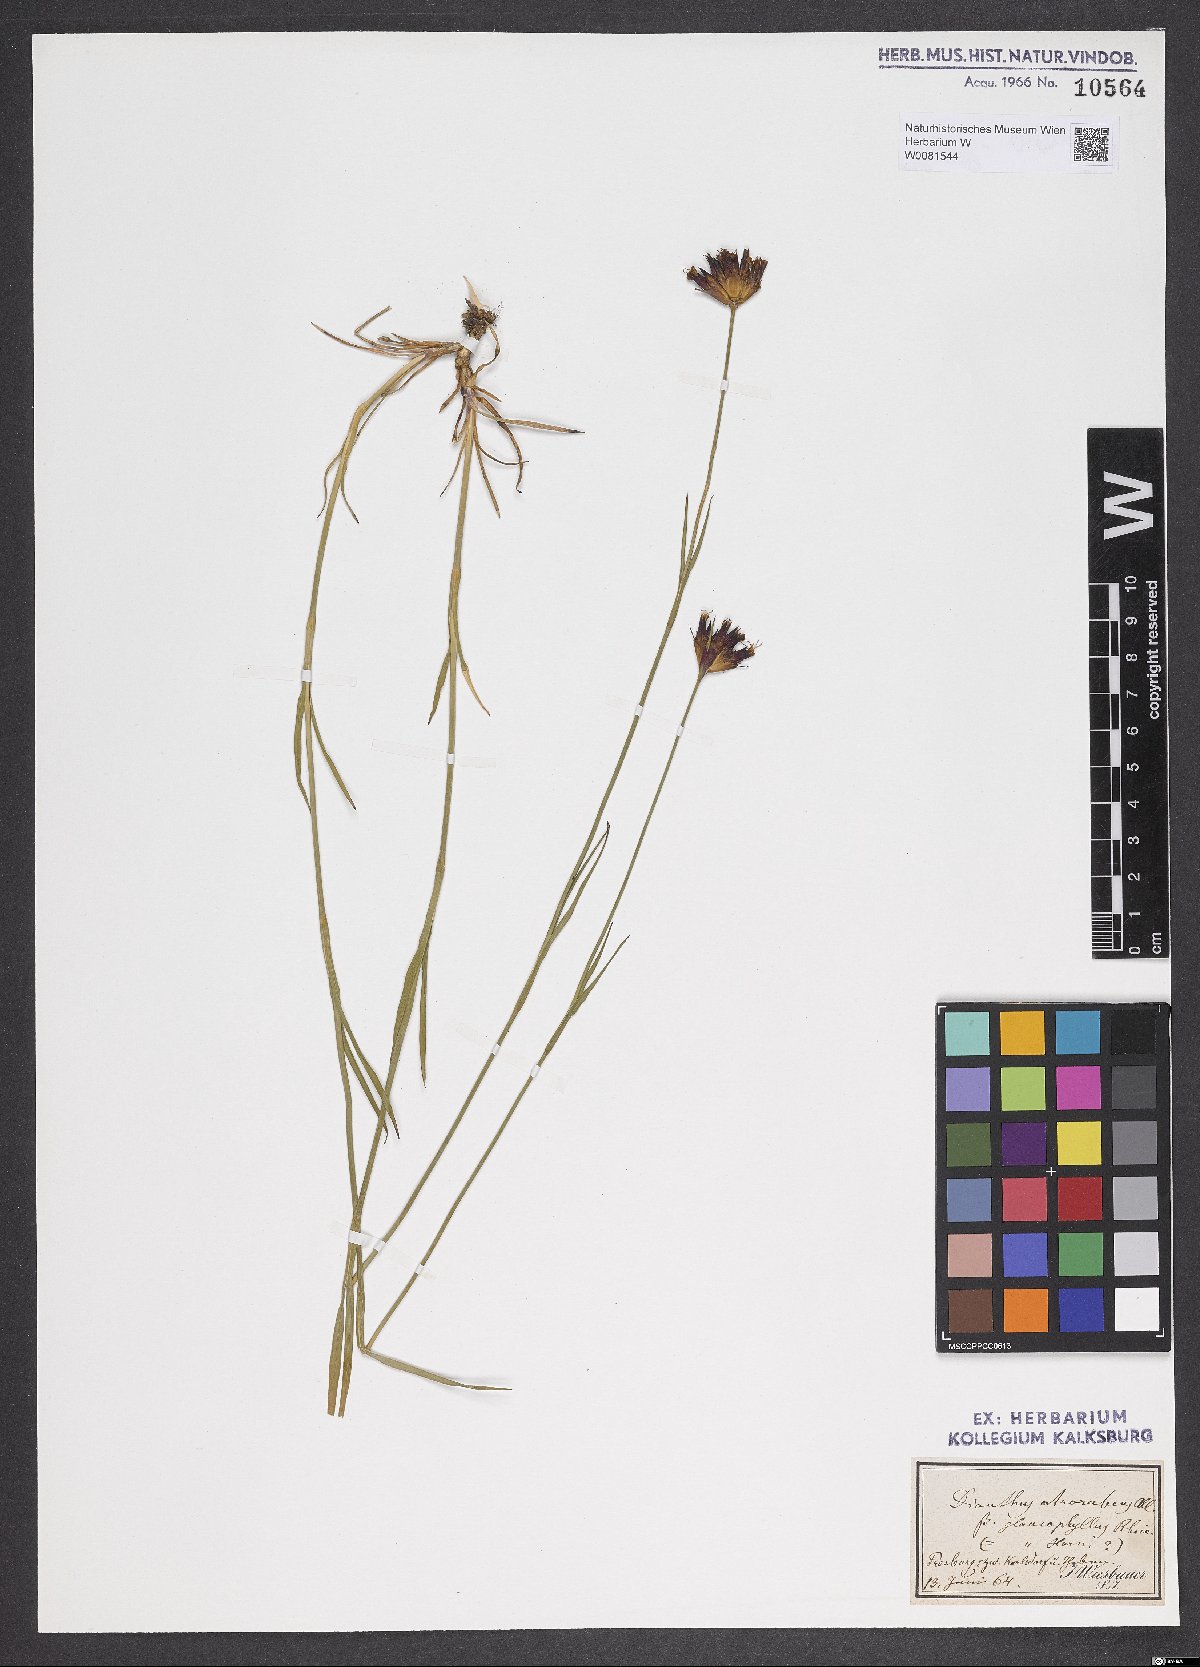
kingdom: Plantae
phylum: Tracheophyta
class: Magnoliopsida
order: Caryophyllales
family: Caryophyllaceae
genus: Dianthus
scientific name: Dianthus carthusianorum
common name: Carthusian pink
